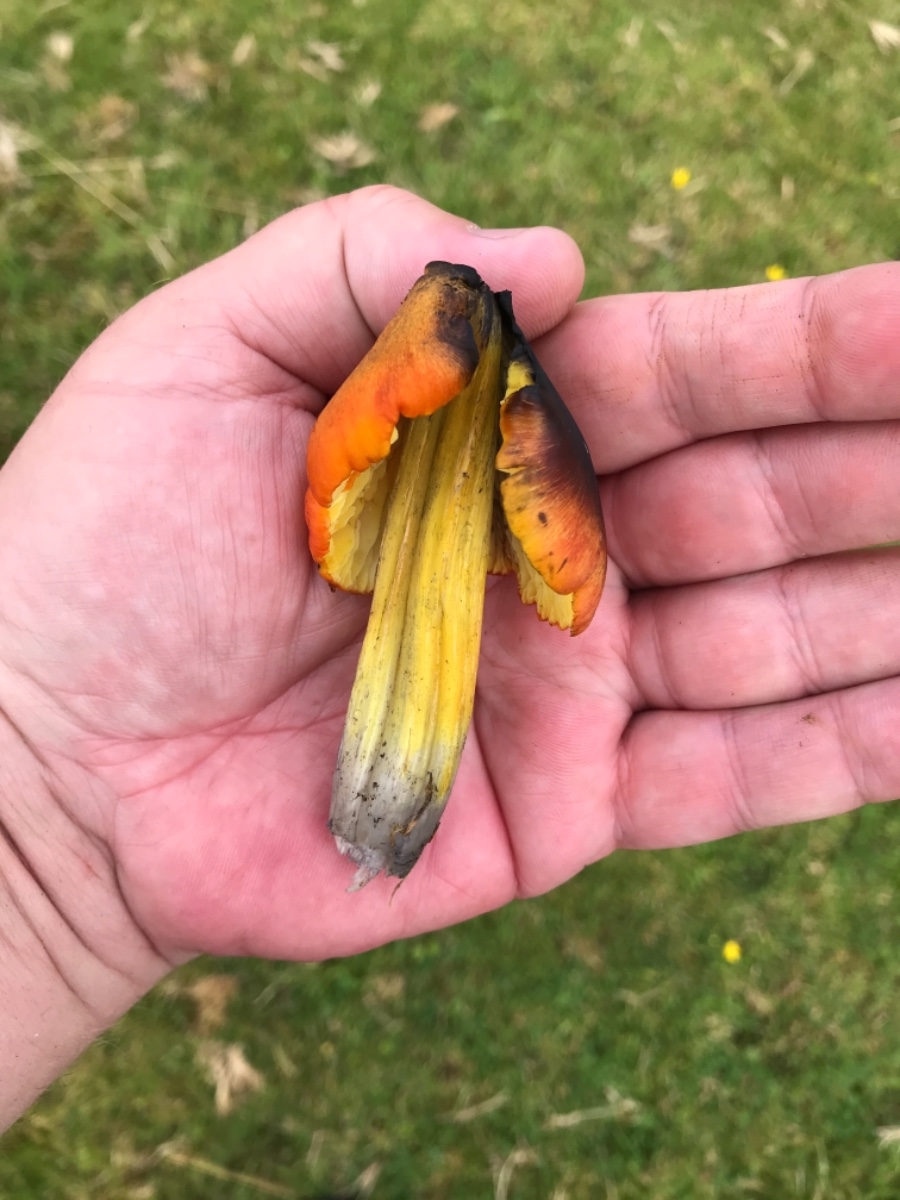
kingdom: Fungi
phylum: Basidiomycota
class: Agaricomycetes
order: Agaricales
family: Hygrophoraceae
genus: Hygrocybe
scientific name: Hygrocybe conica
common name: kegle-vokshat
